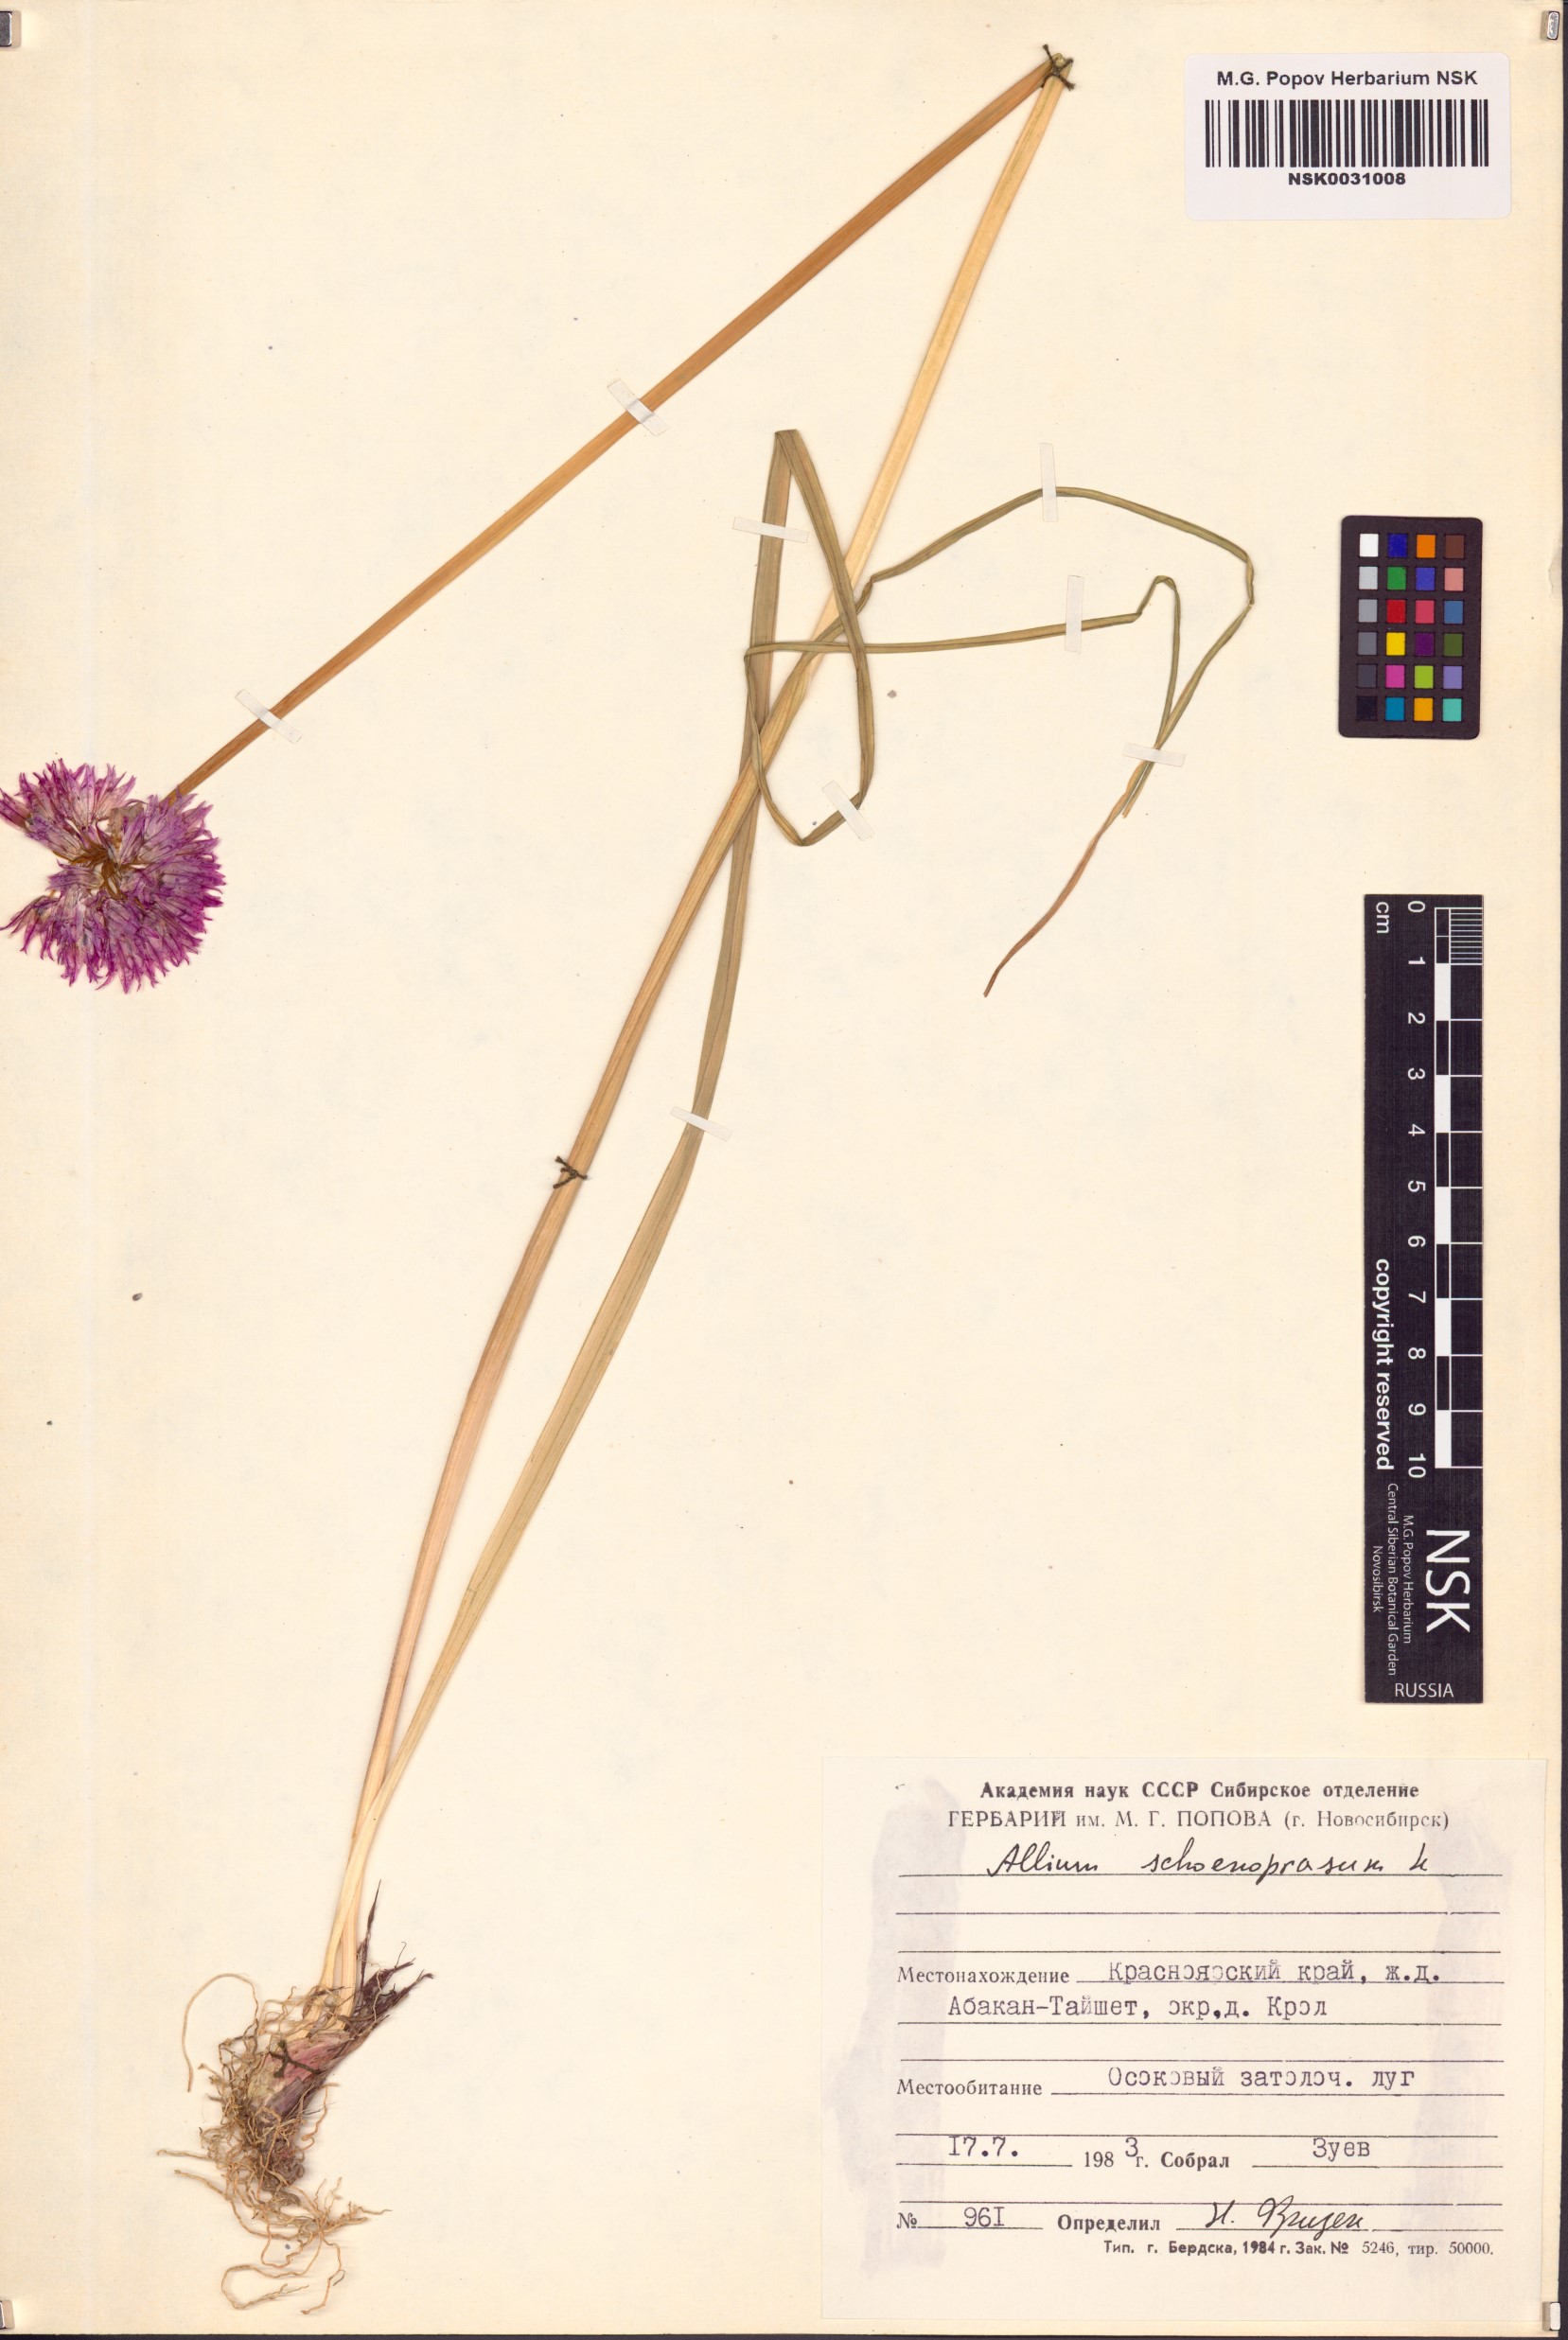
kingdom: Plantae
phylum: Tracheophyta
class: Liliopsida
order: Asparagales
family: Amaryllidaceae
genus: Allium
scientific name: Allium schoenoprasum
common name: Chives
